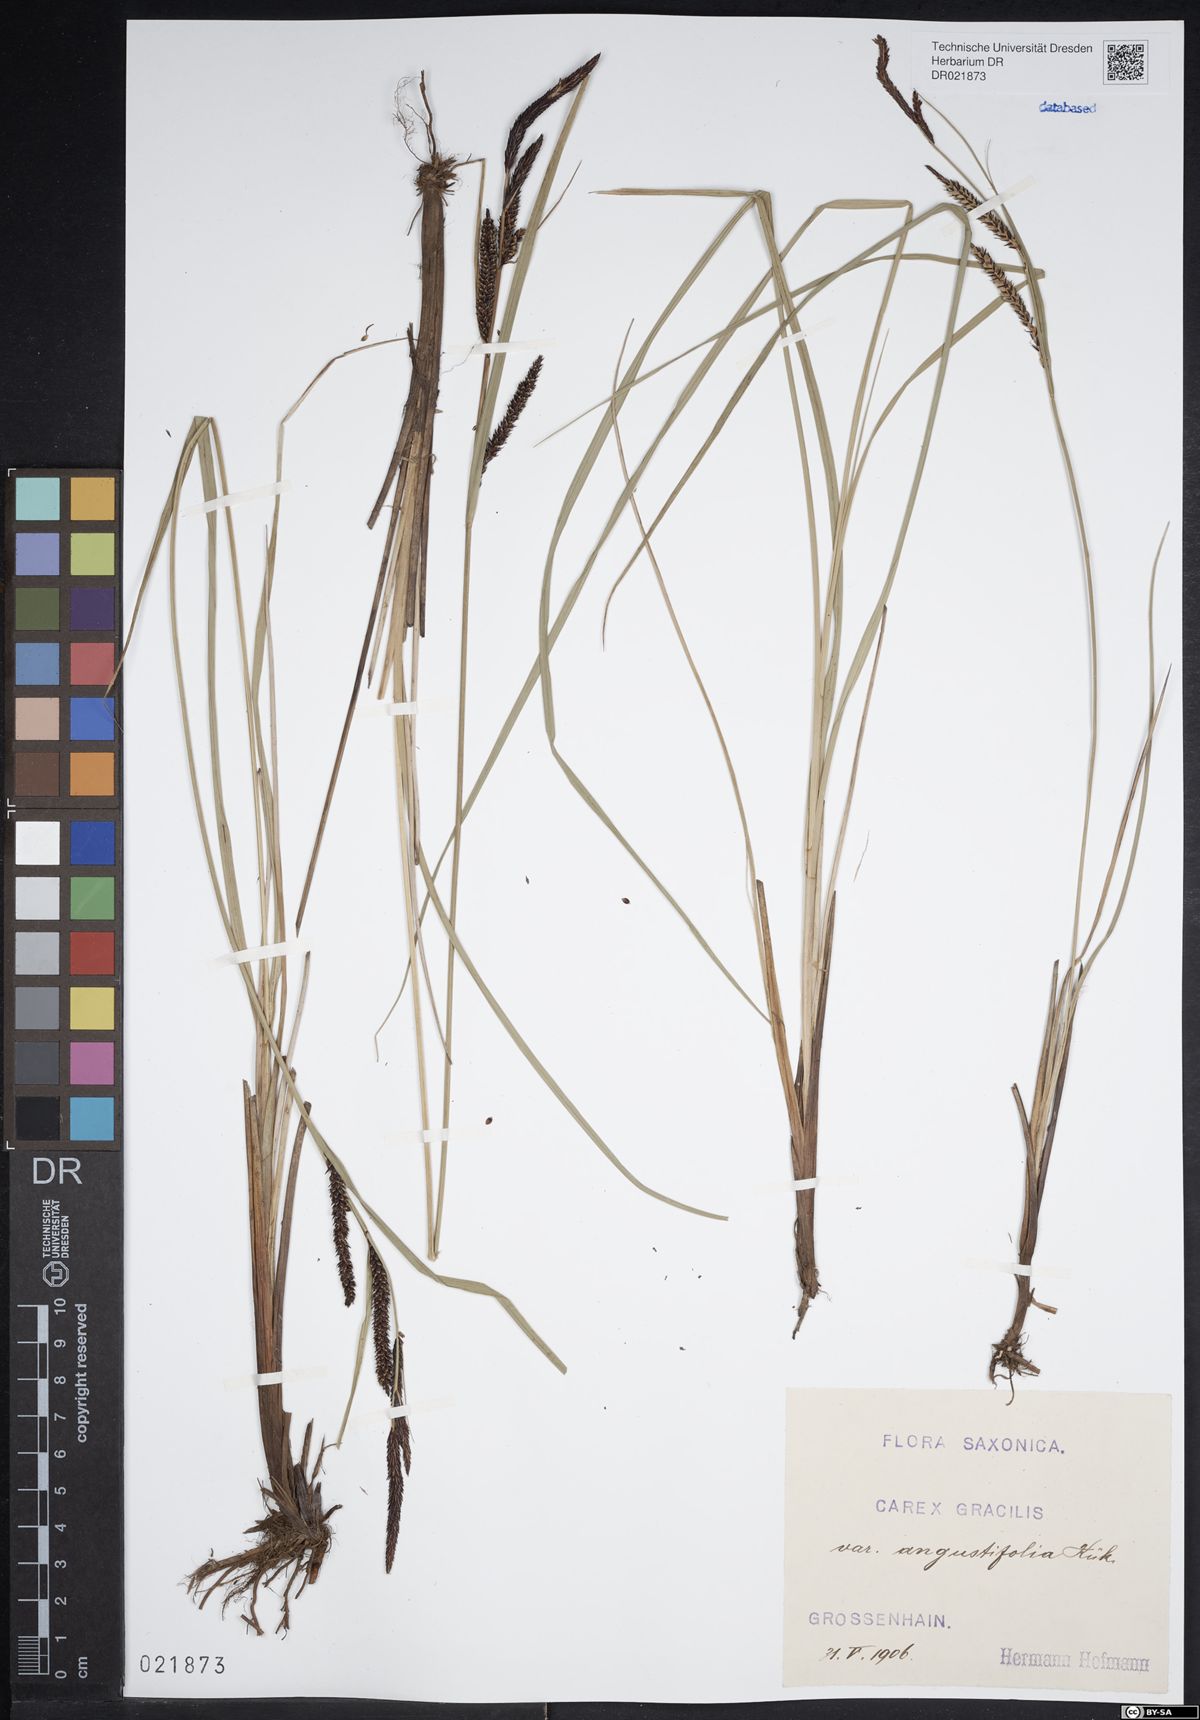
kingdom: Plantae
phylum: Tracheophyta
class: Liliopsida
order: Poales
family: Cyperaceae
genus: Carex
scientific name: Carex acuta
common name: Slender tufted-sedge
